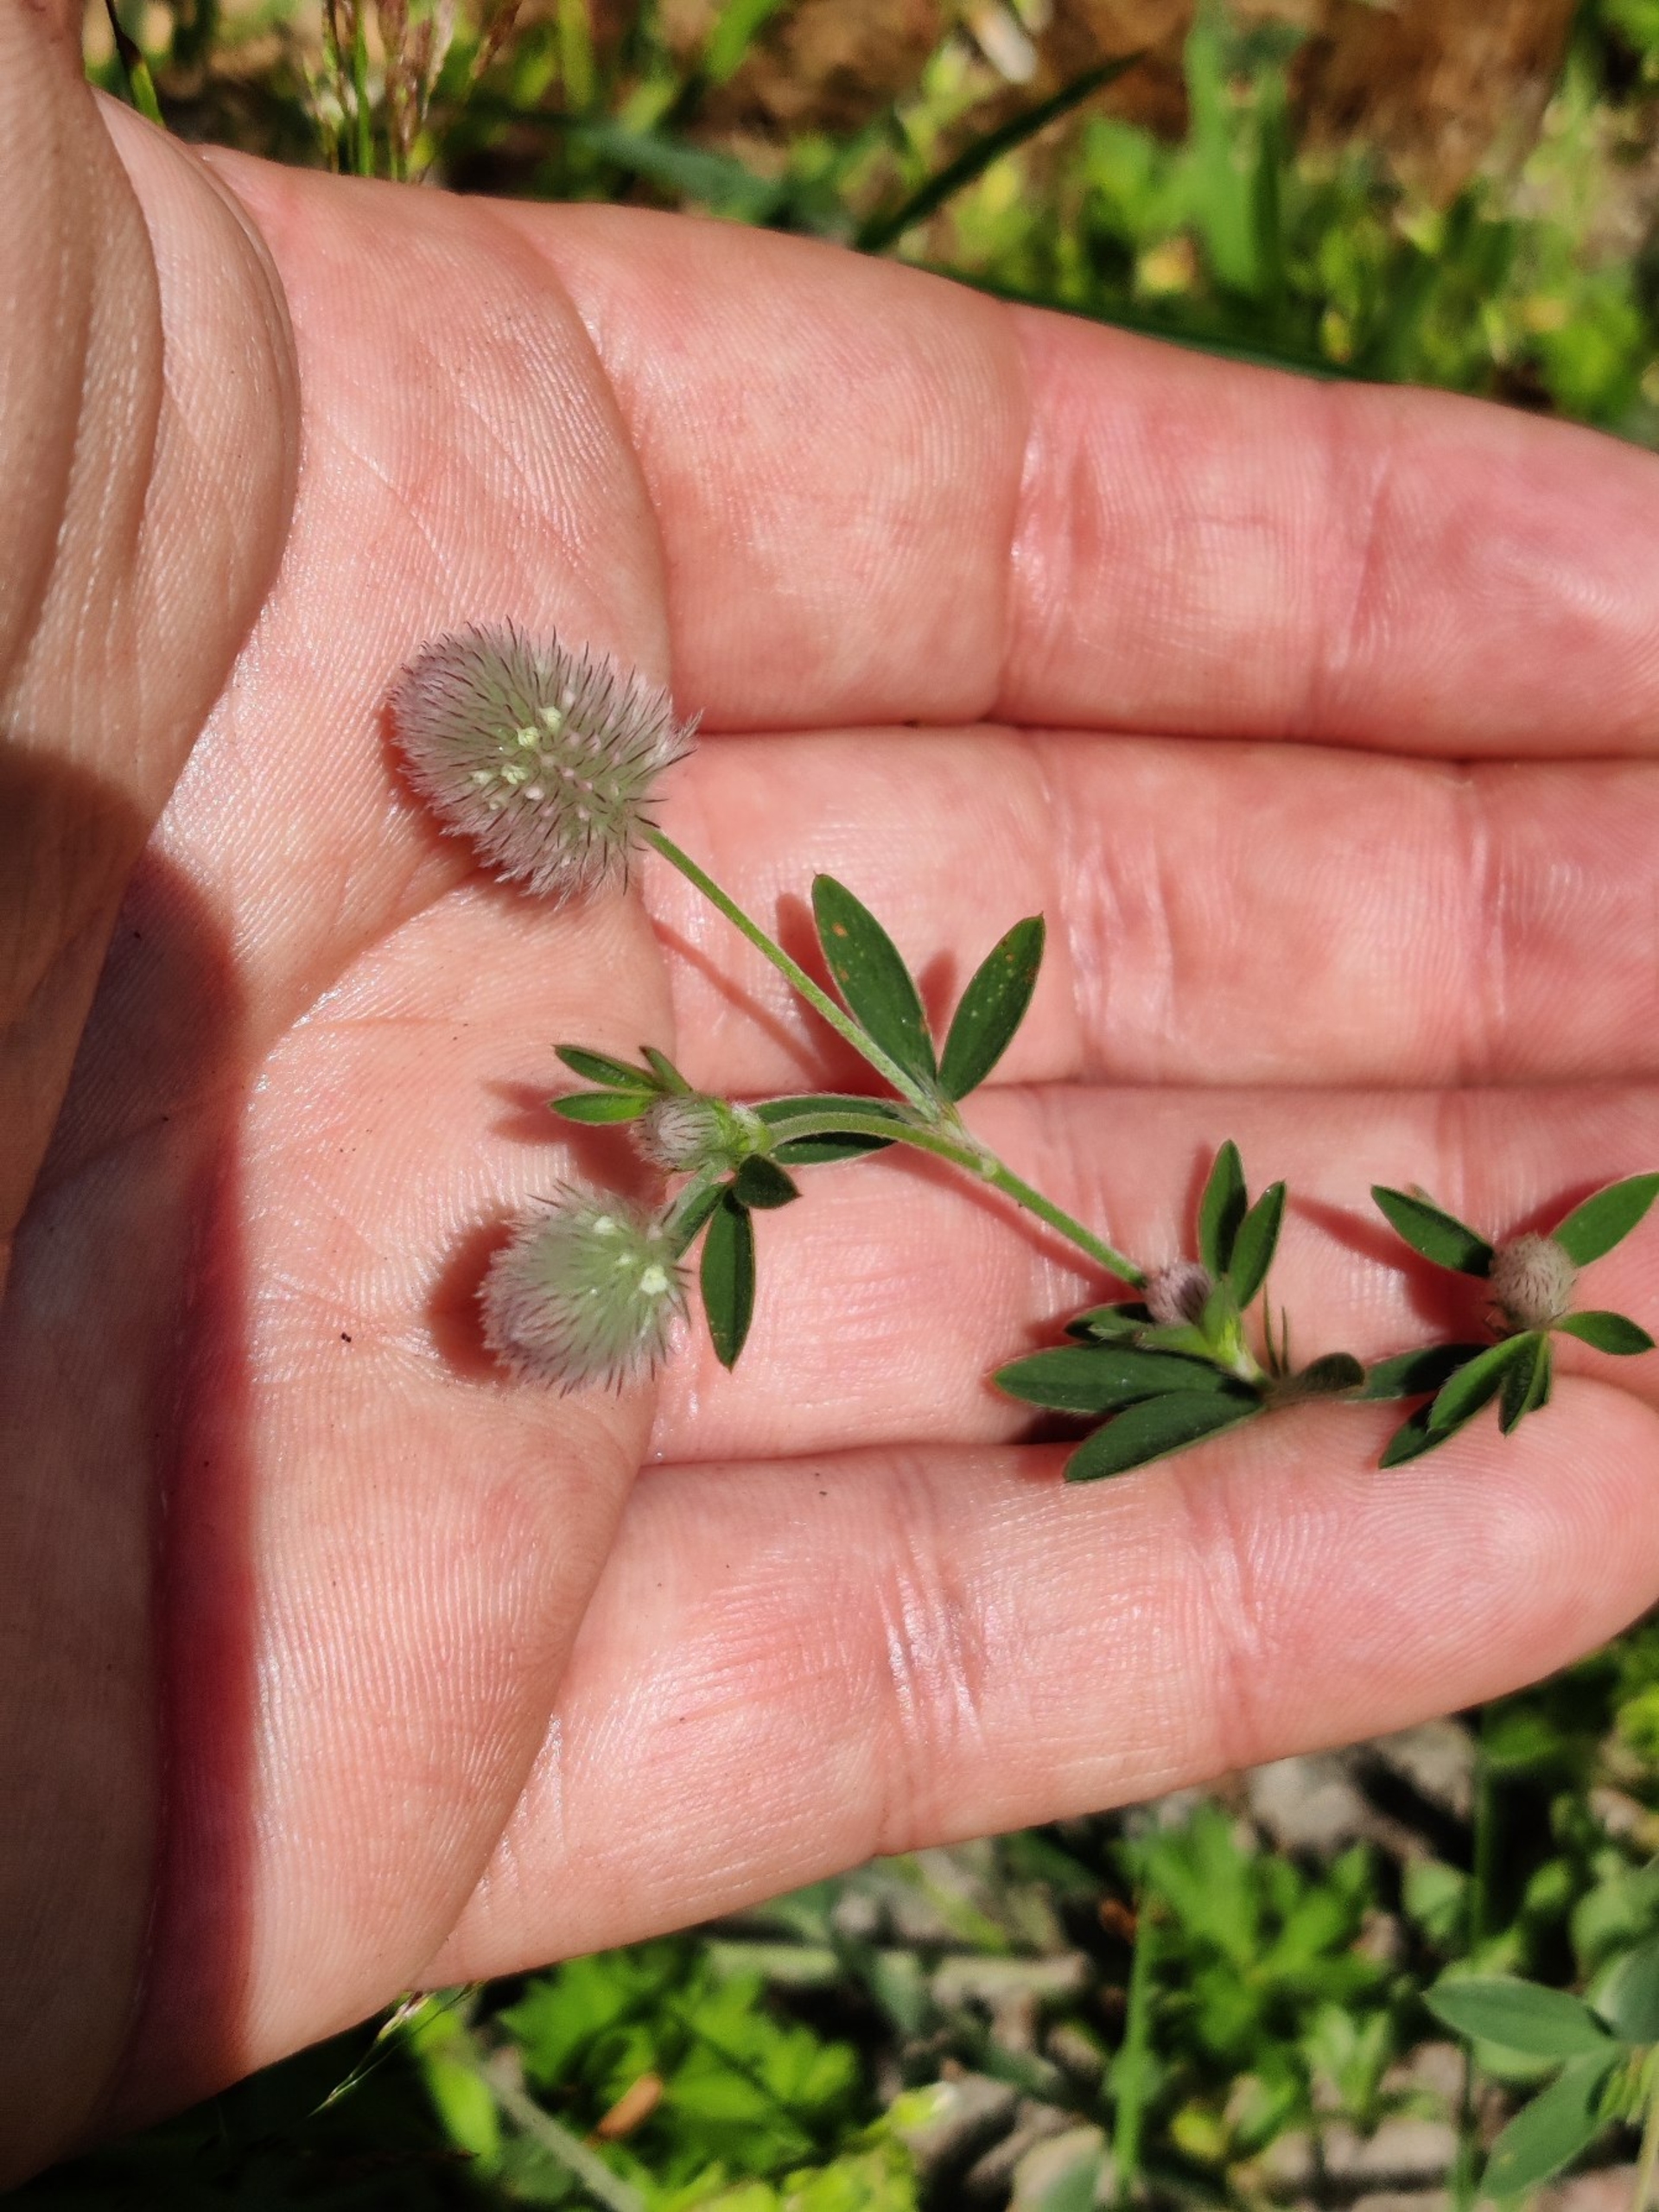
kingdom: Plantae
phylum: Tracheophyta
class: Magnoliopsida
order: Fabales
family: Fabaceae
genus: Trifolium
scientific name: Trifolium arvense
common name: Hare-kløver
